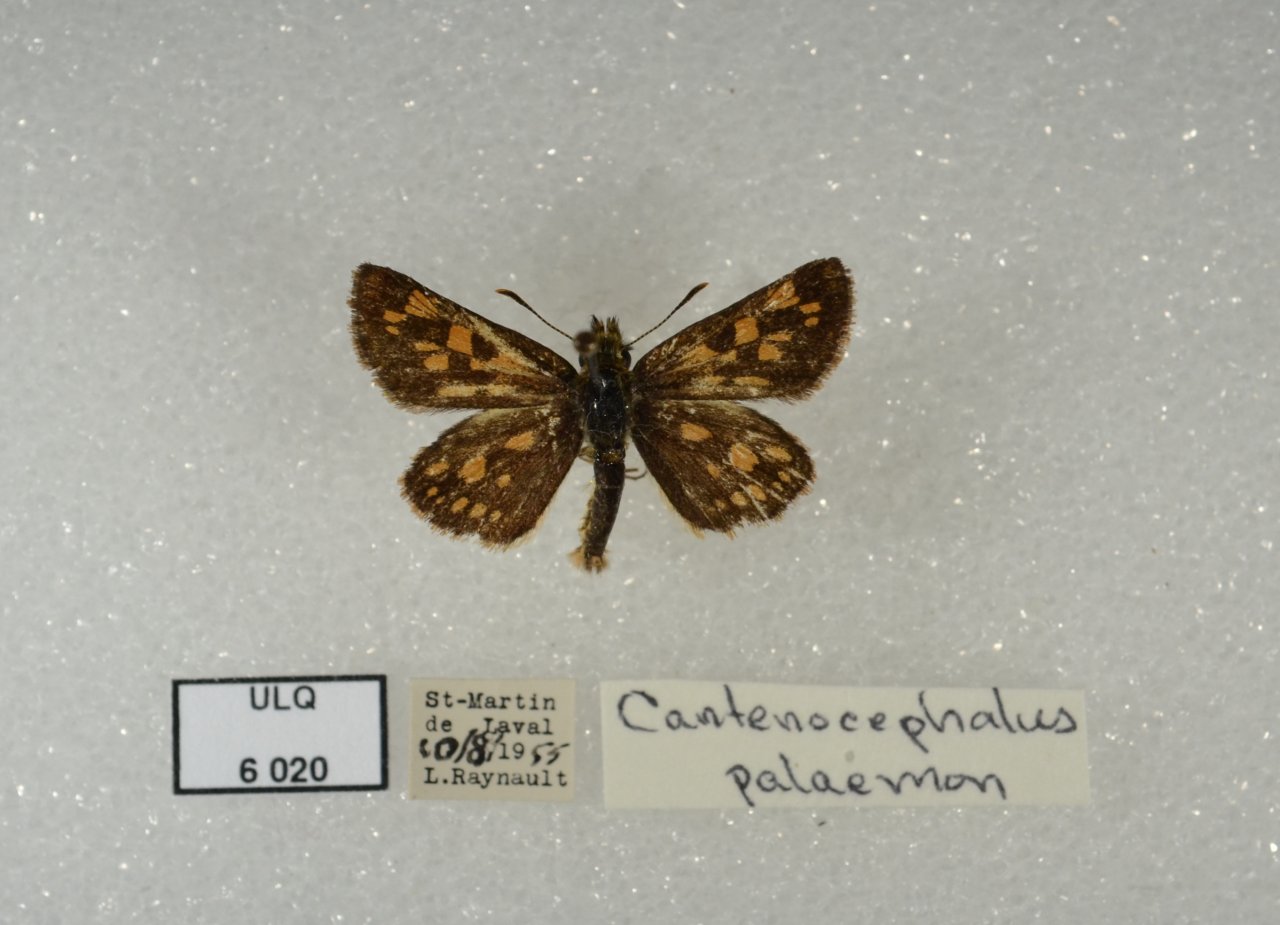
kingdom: Animalia
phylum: Arthropoda
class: Insecta
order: Lepidoptera
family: Hesperiidae
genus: Carterocephalus
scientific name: Carterocephalus palaemon
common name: Chequered Skipper
